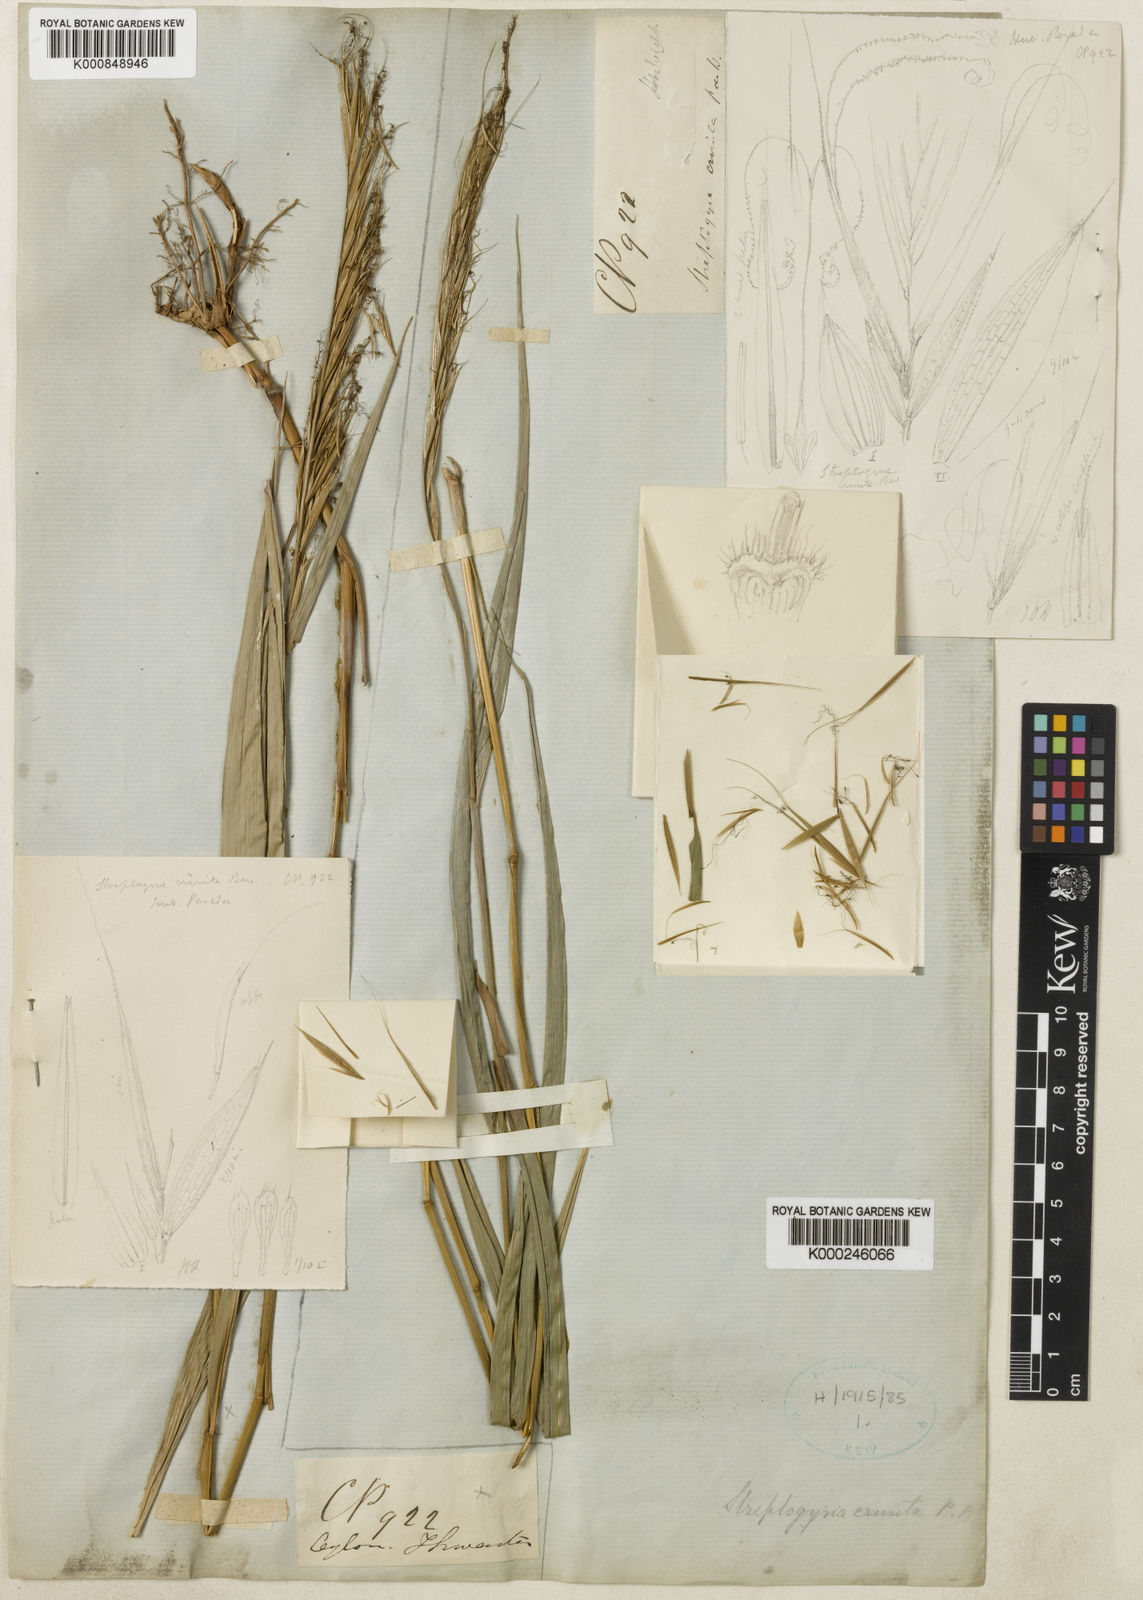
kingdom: Plantae
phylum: Tracheophyta
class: Liliopsida
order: Poales
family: Poaceae
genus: Streptogyna
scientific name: Streptogyna crinita
